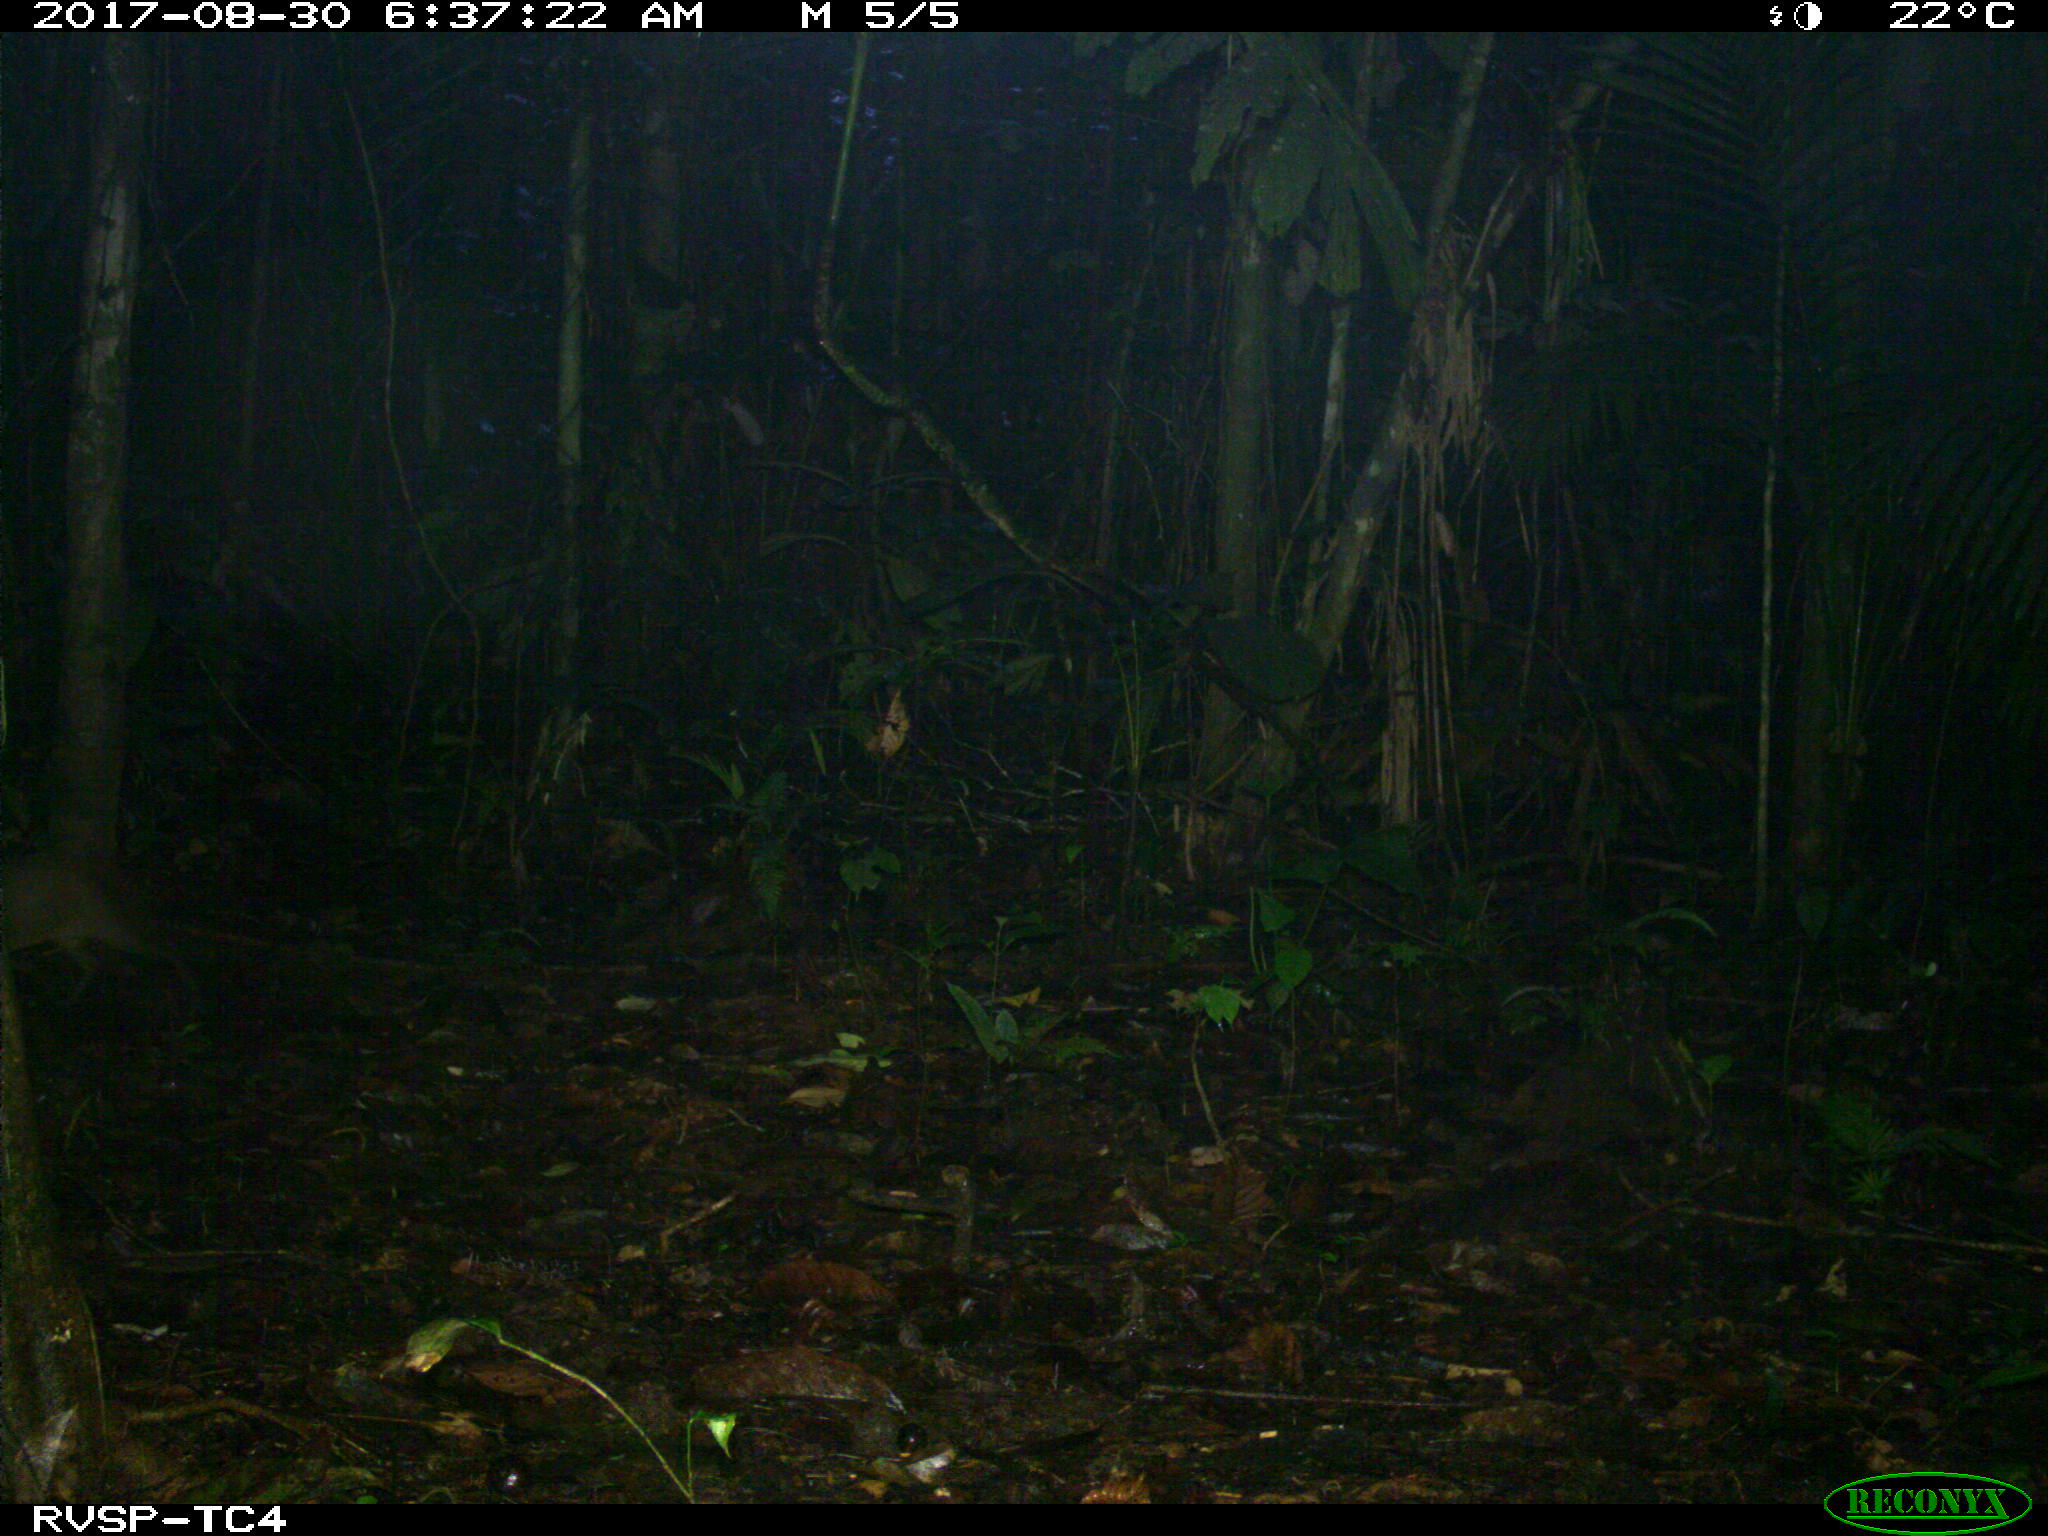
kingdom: Animalia
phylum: Chordata
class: Mammalia
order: Rodentia
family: Dasyproctidae
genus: Dasyprocta
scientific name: Dasyprocta punctata
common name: Central american agouti
